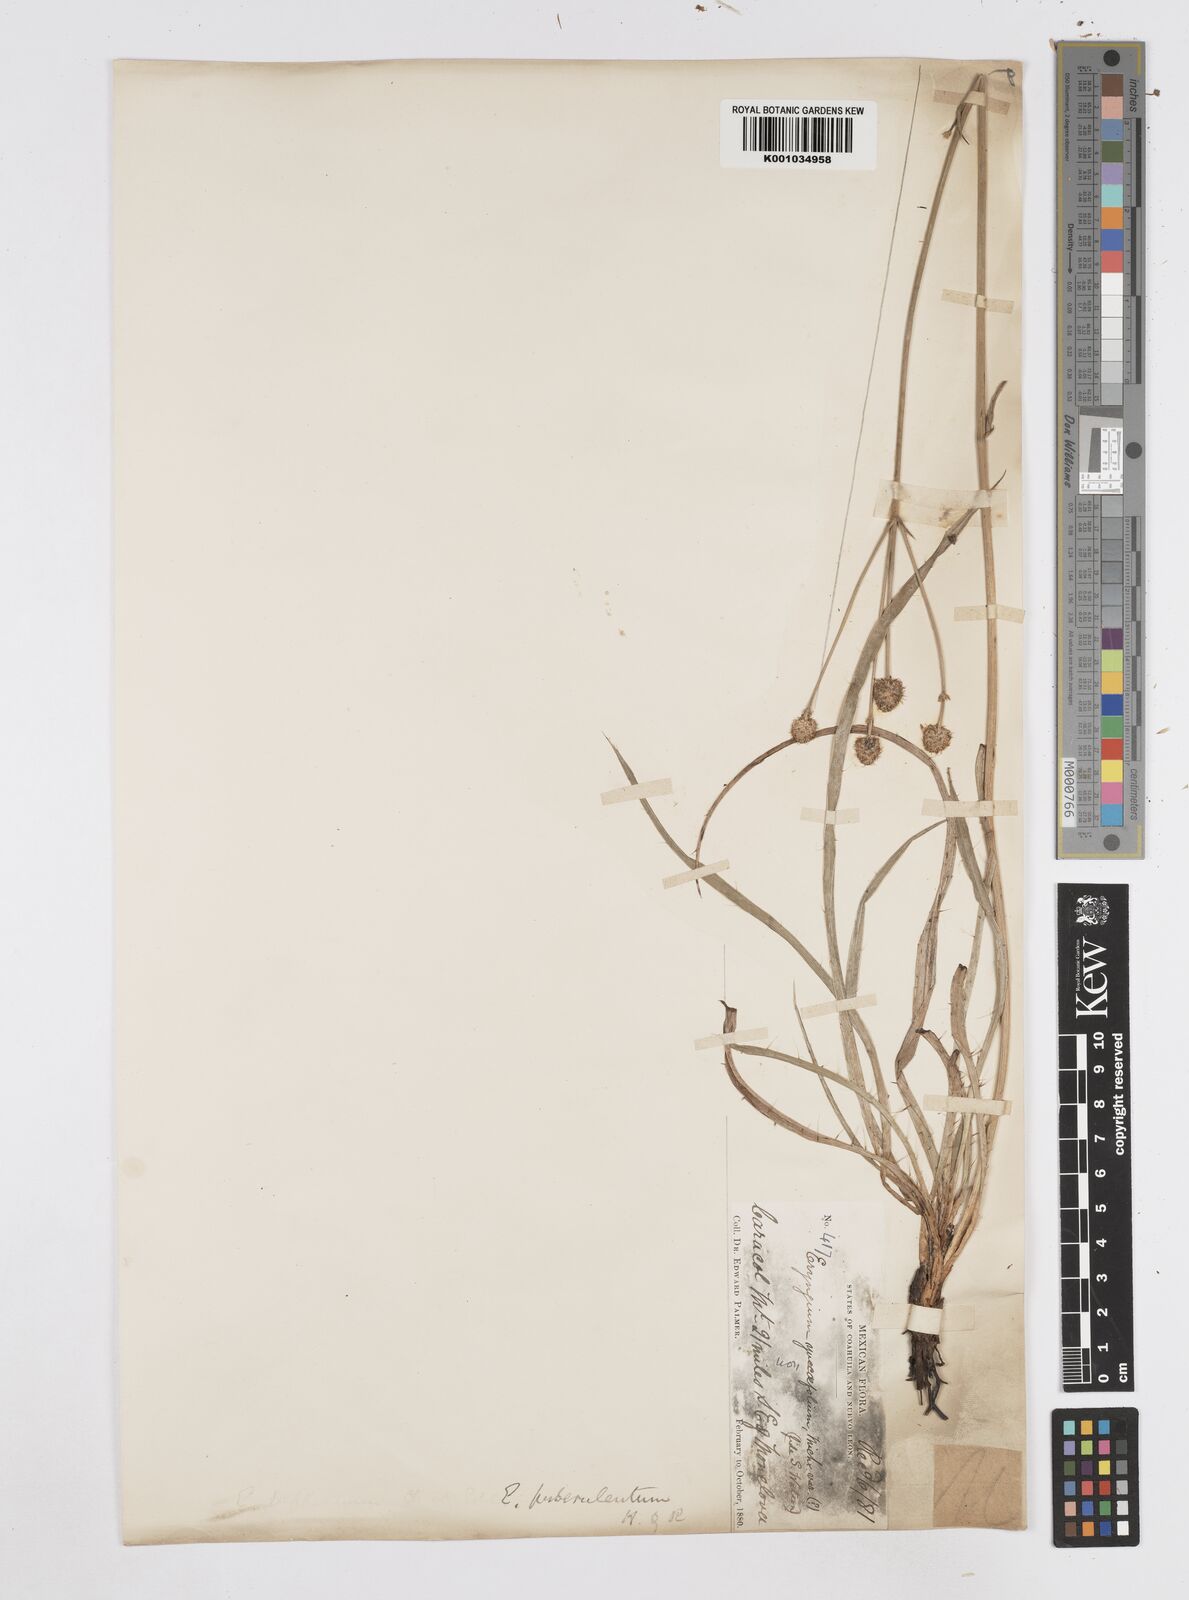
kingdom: Plantae
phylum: Tracheophyta
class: Magnoliopsida
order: Apiales
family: Apiaceae
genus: Eryngium
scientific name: Eryngium gramineum
